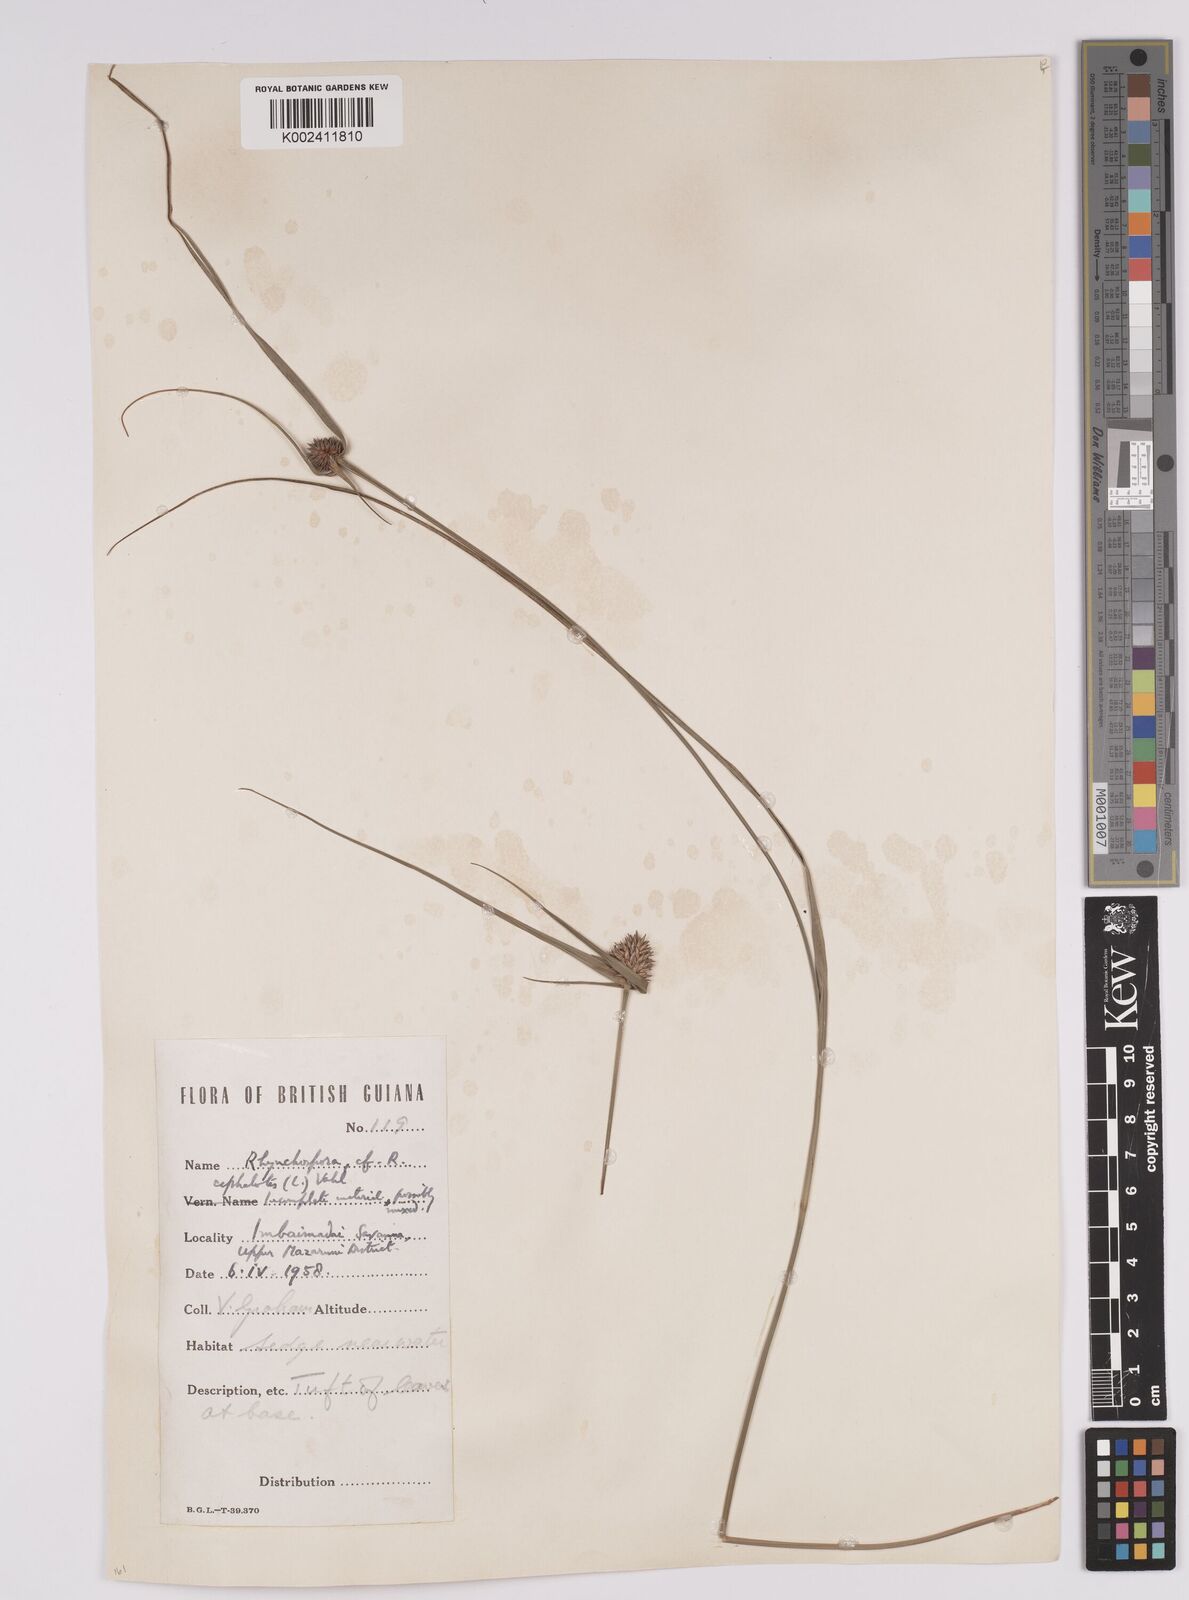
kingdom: Plantae
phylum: Tracheophyta
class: Liliopsida
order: Poales
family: Cyperaceae
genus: Rhynchospora
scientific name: Rhynchospora cephalotes
